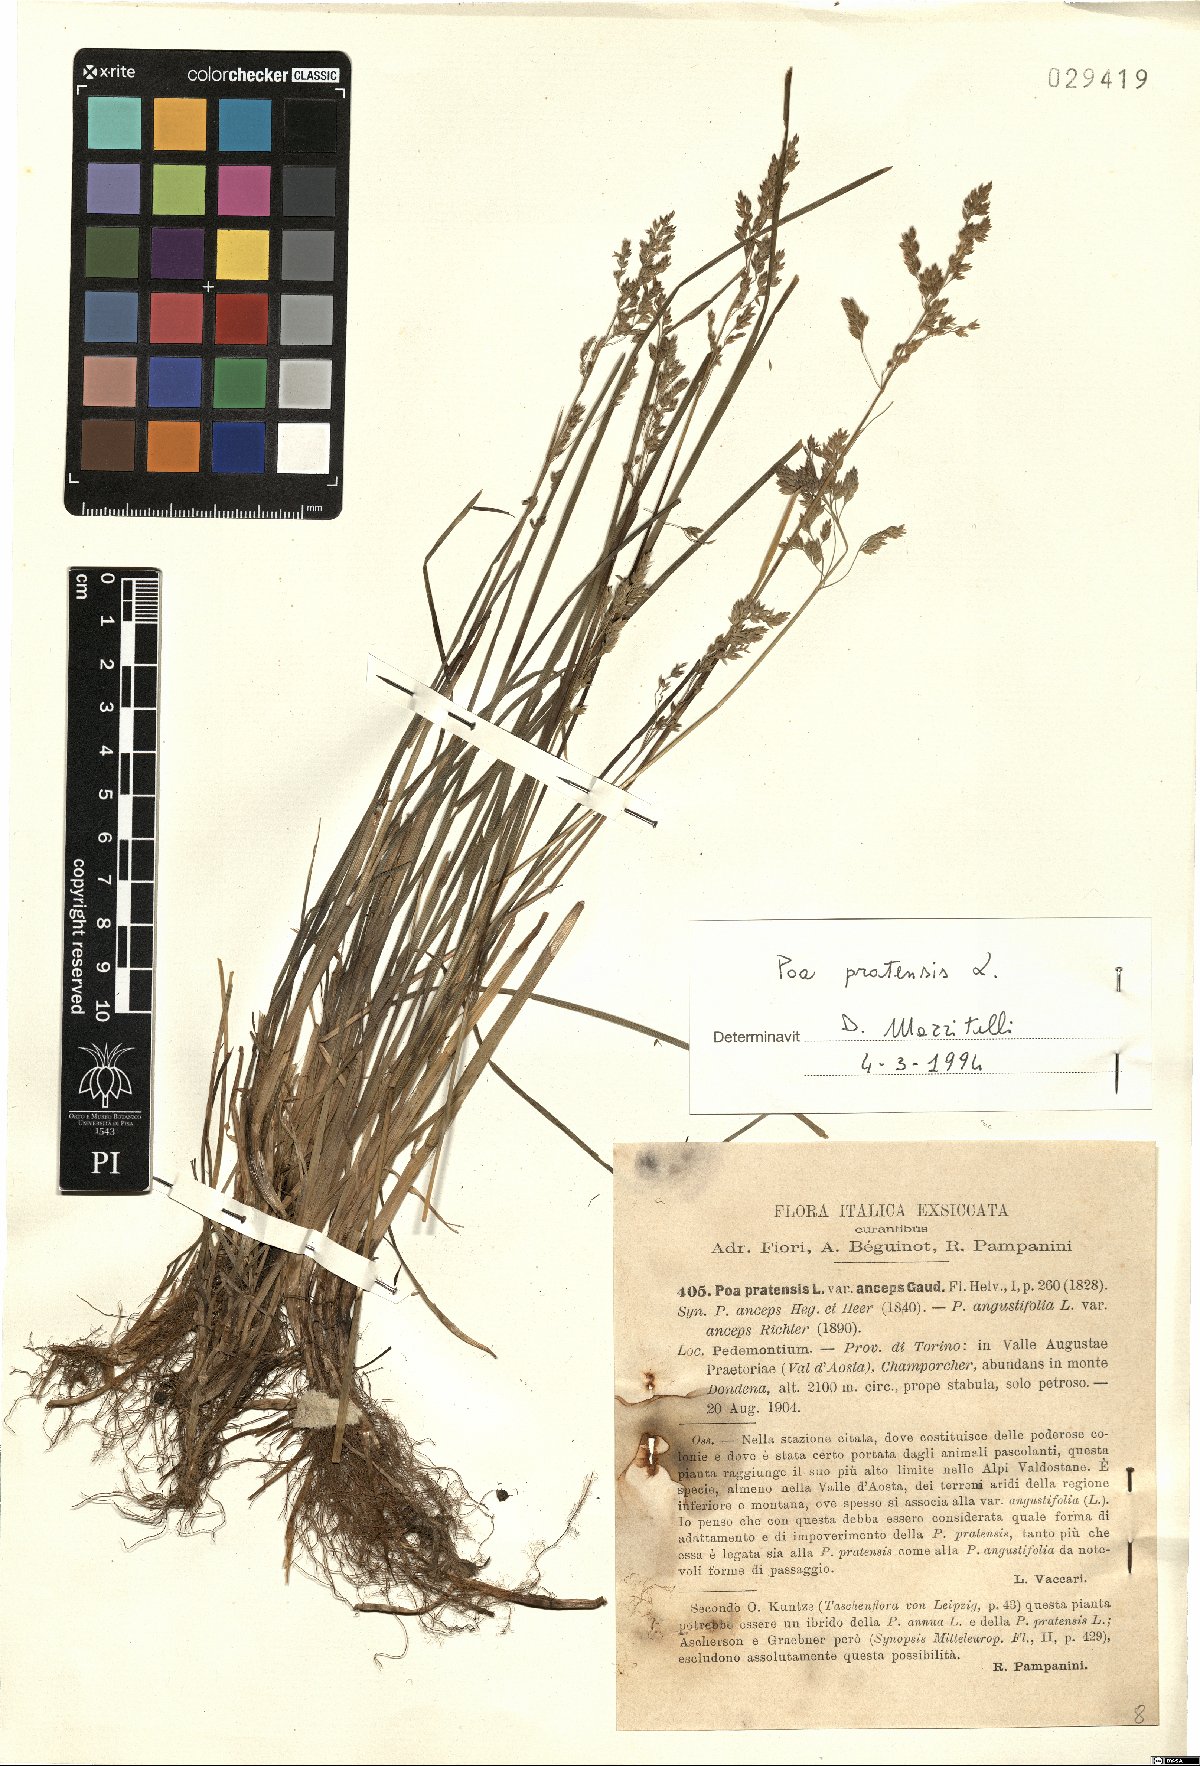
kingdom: Plantae
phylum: Tracheophyta
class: Liliopsida
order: Poales
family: Poaceae
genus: Poa
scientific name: Poa pratensis
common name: Kentucky bluegrass
